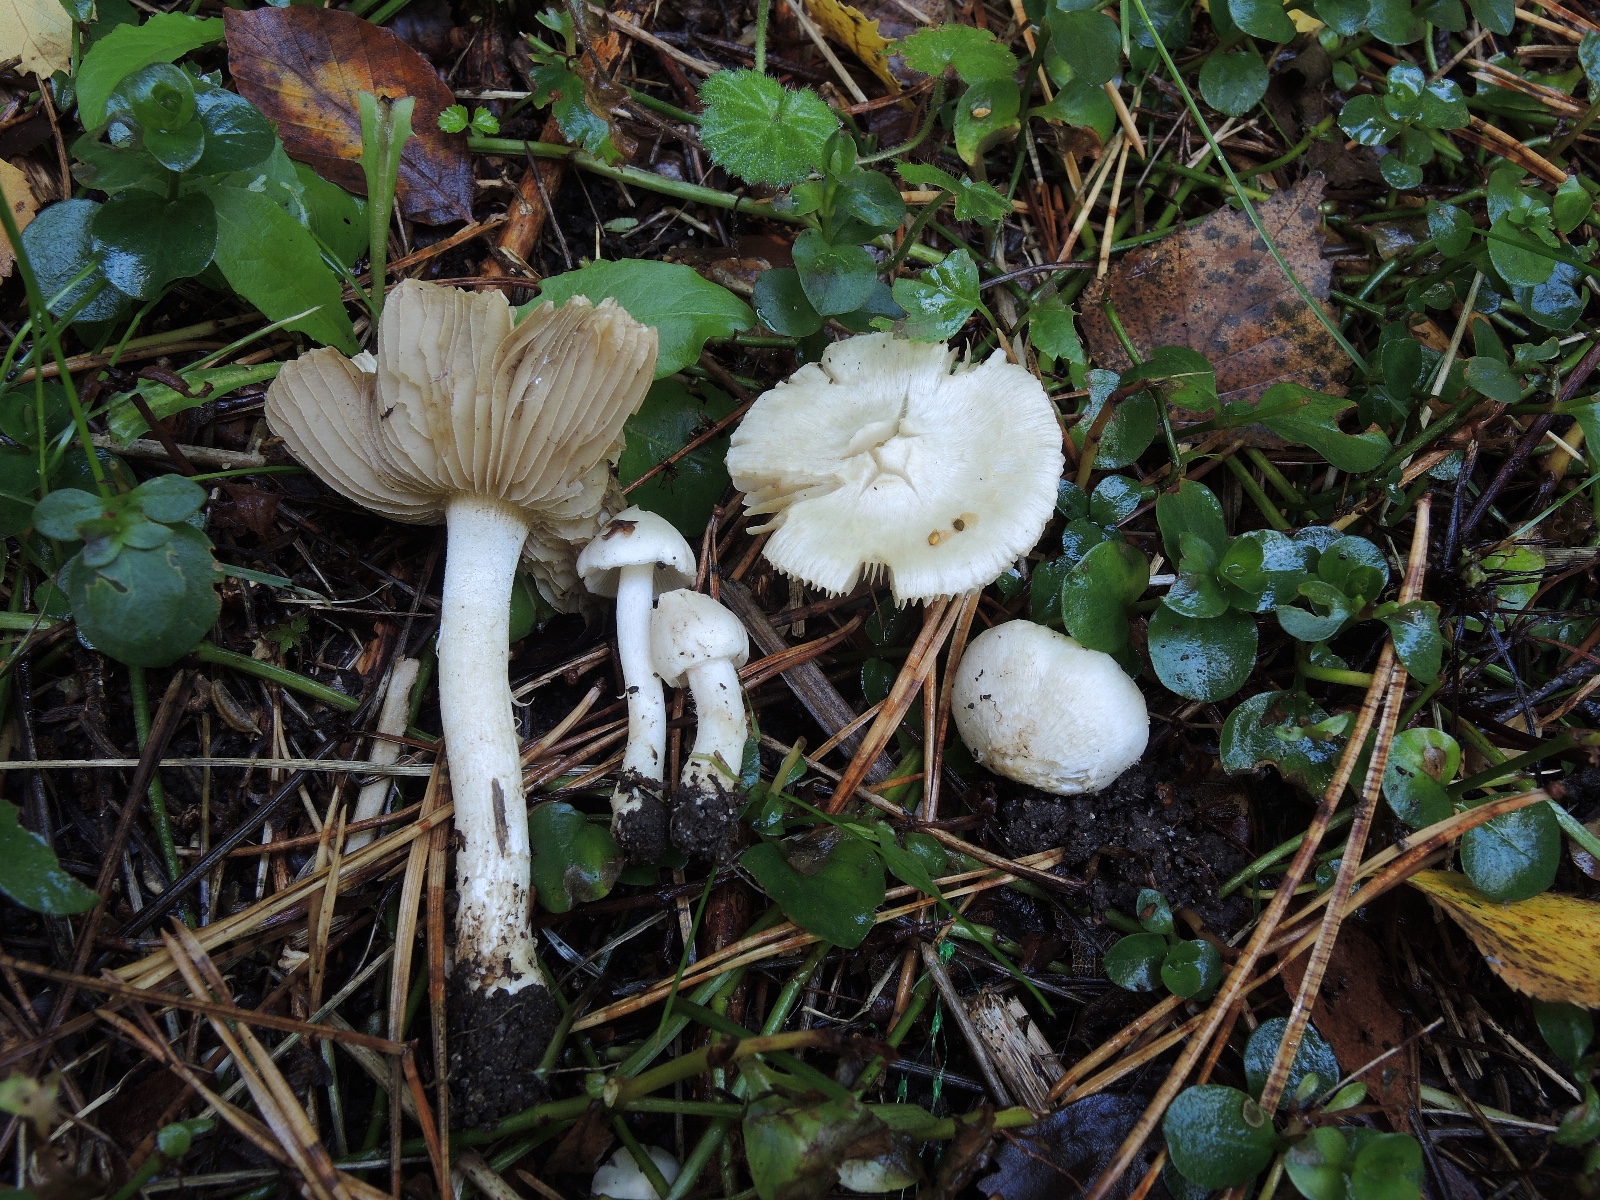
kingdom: Fungi
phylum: Basidiomycota
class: Agaricomycetes
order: Agaricales
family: Inocybaceae
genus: Inocybe
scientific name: Inocybe
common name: almindelig trævlhat
